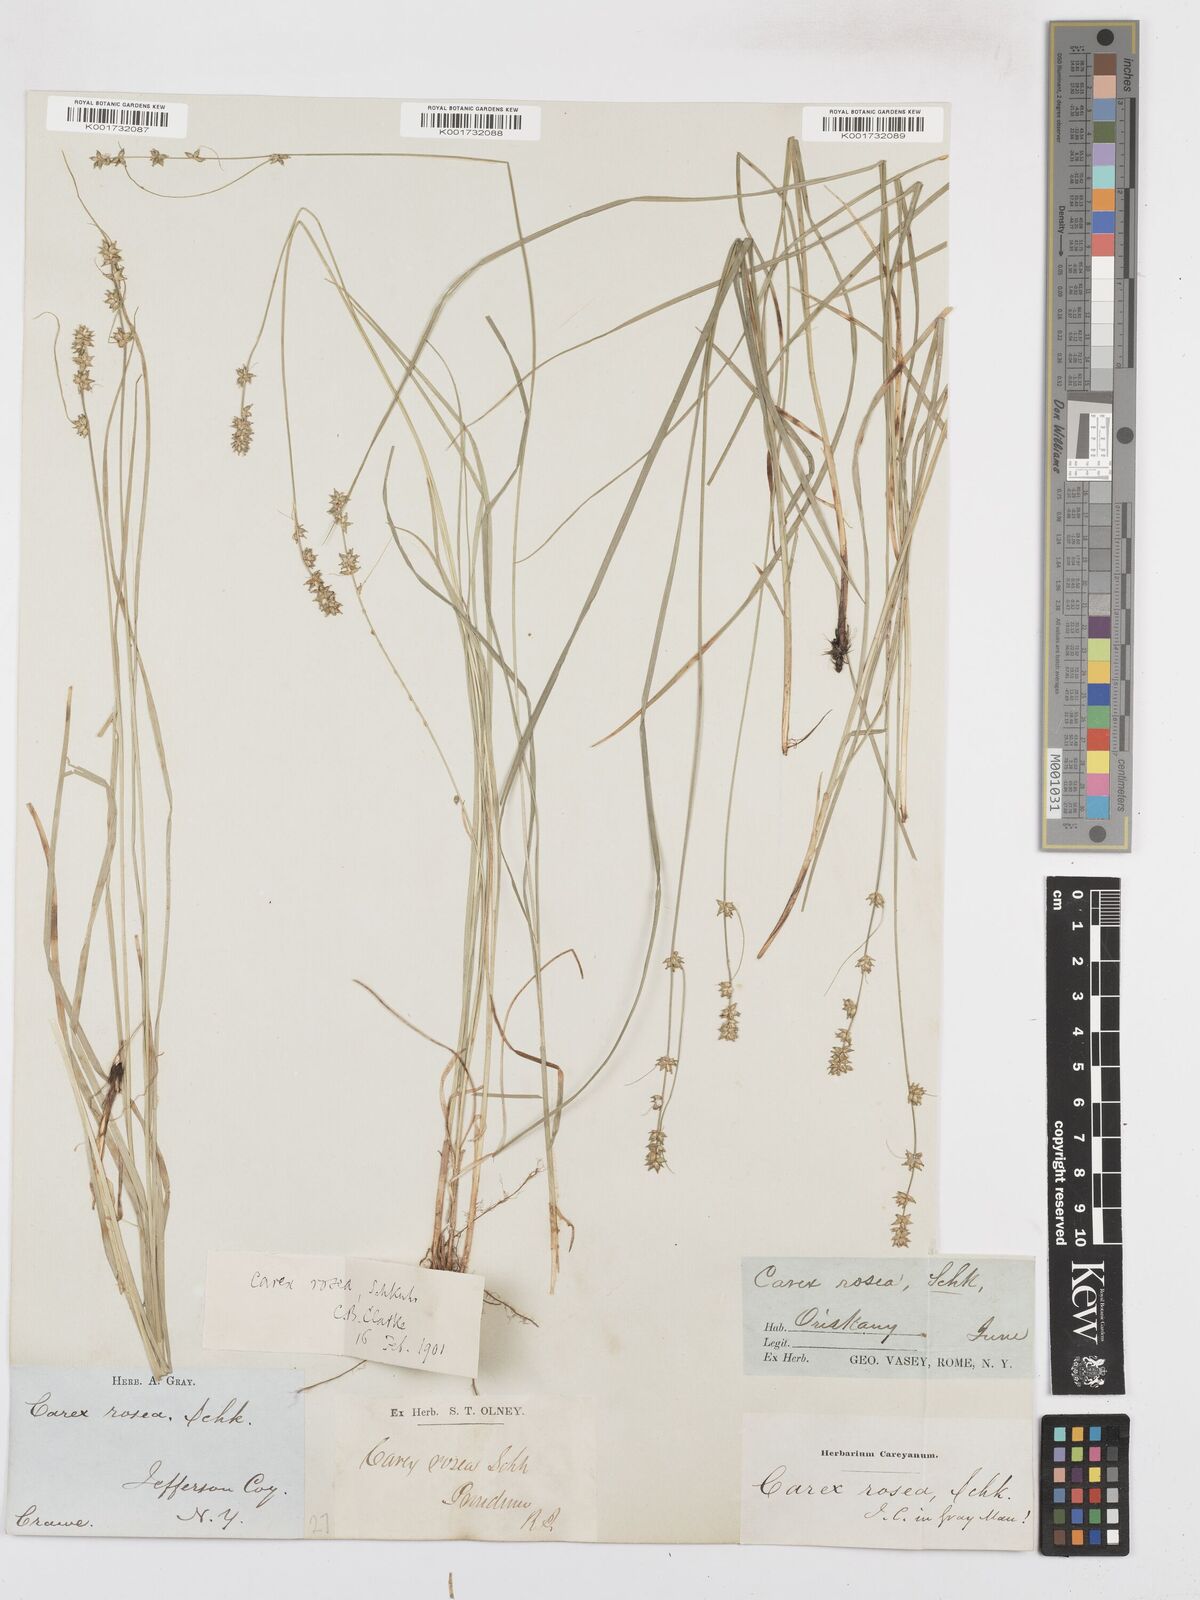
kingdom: Plantae
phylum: Tracheophyta
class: Liliopsida
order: Poales
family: Cyperaceae
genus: Carex
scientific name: Carex rosea
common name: Curly-styled wood sedge
